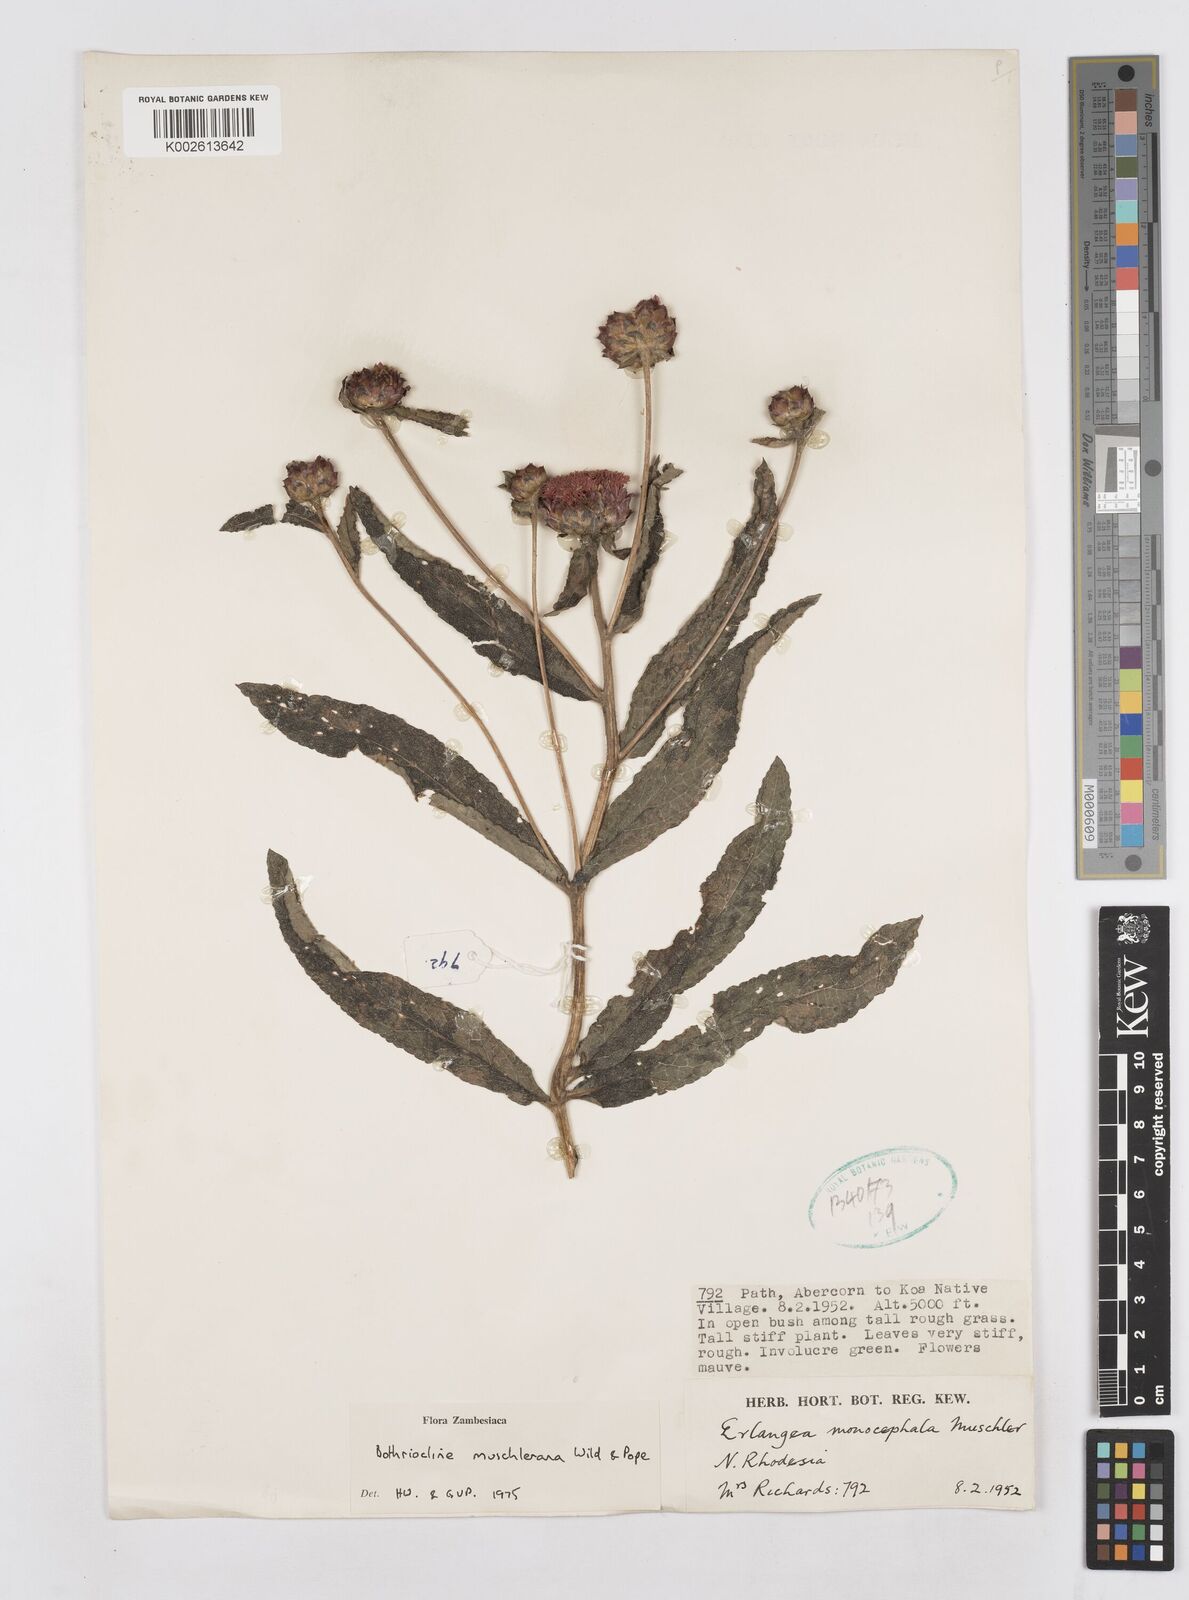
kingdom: Plantae
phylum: Tracheophyta
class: Magnoliopsida
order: Asterales
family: Asteraceae
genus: Bothriocline
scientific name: Bothriocline muschleriana
